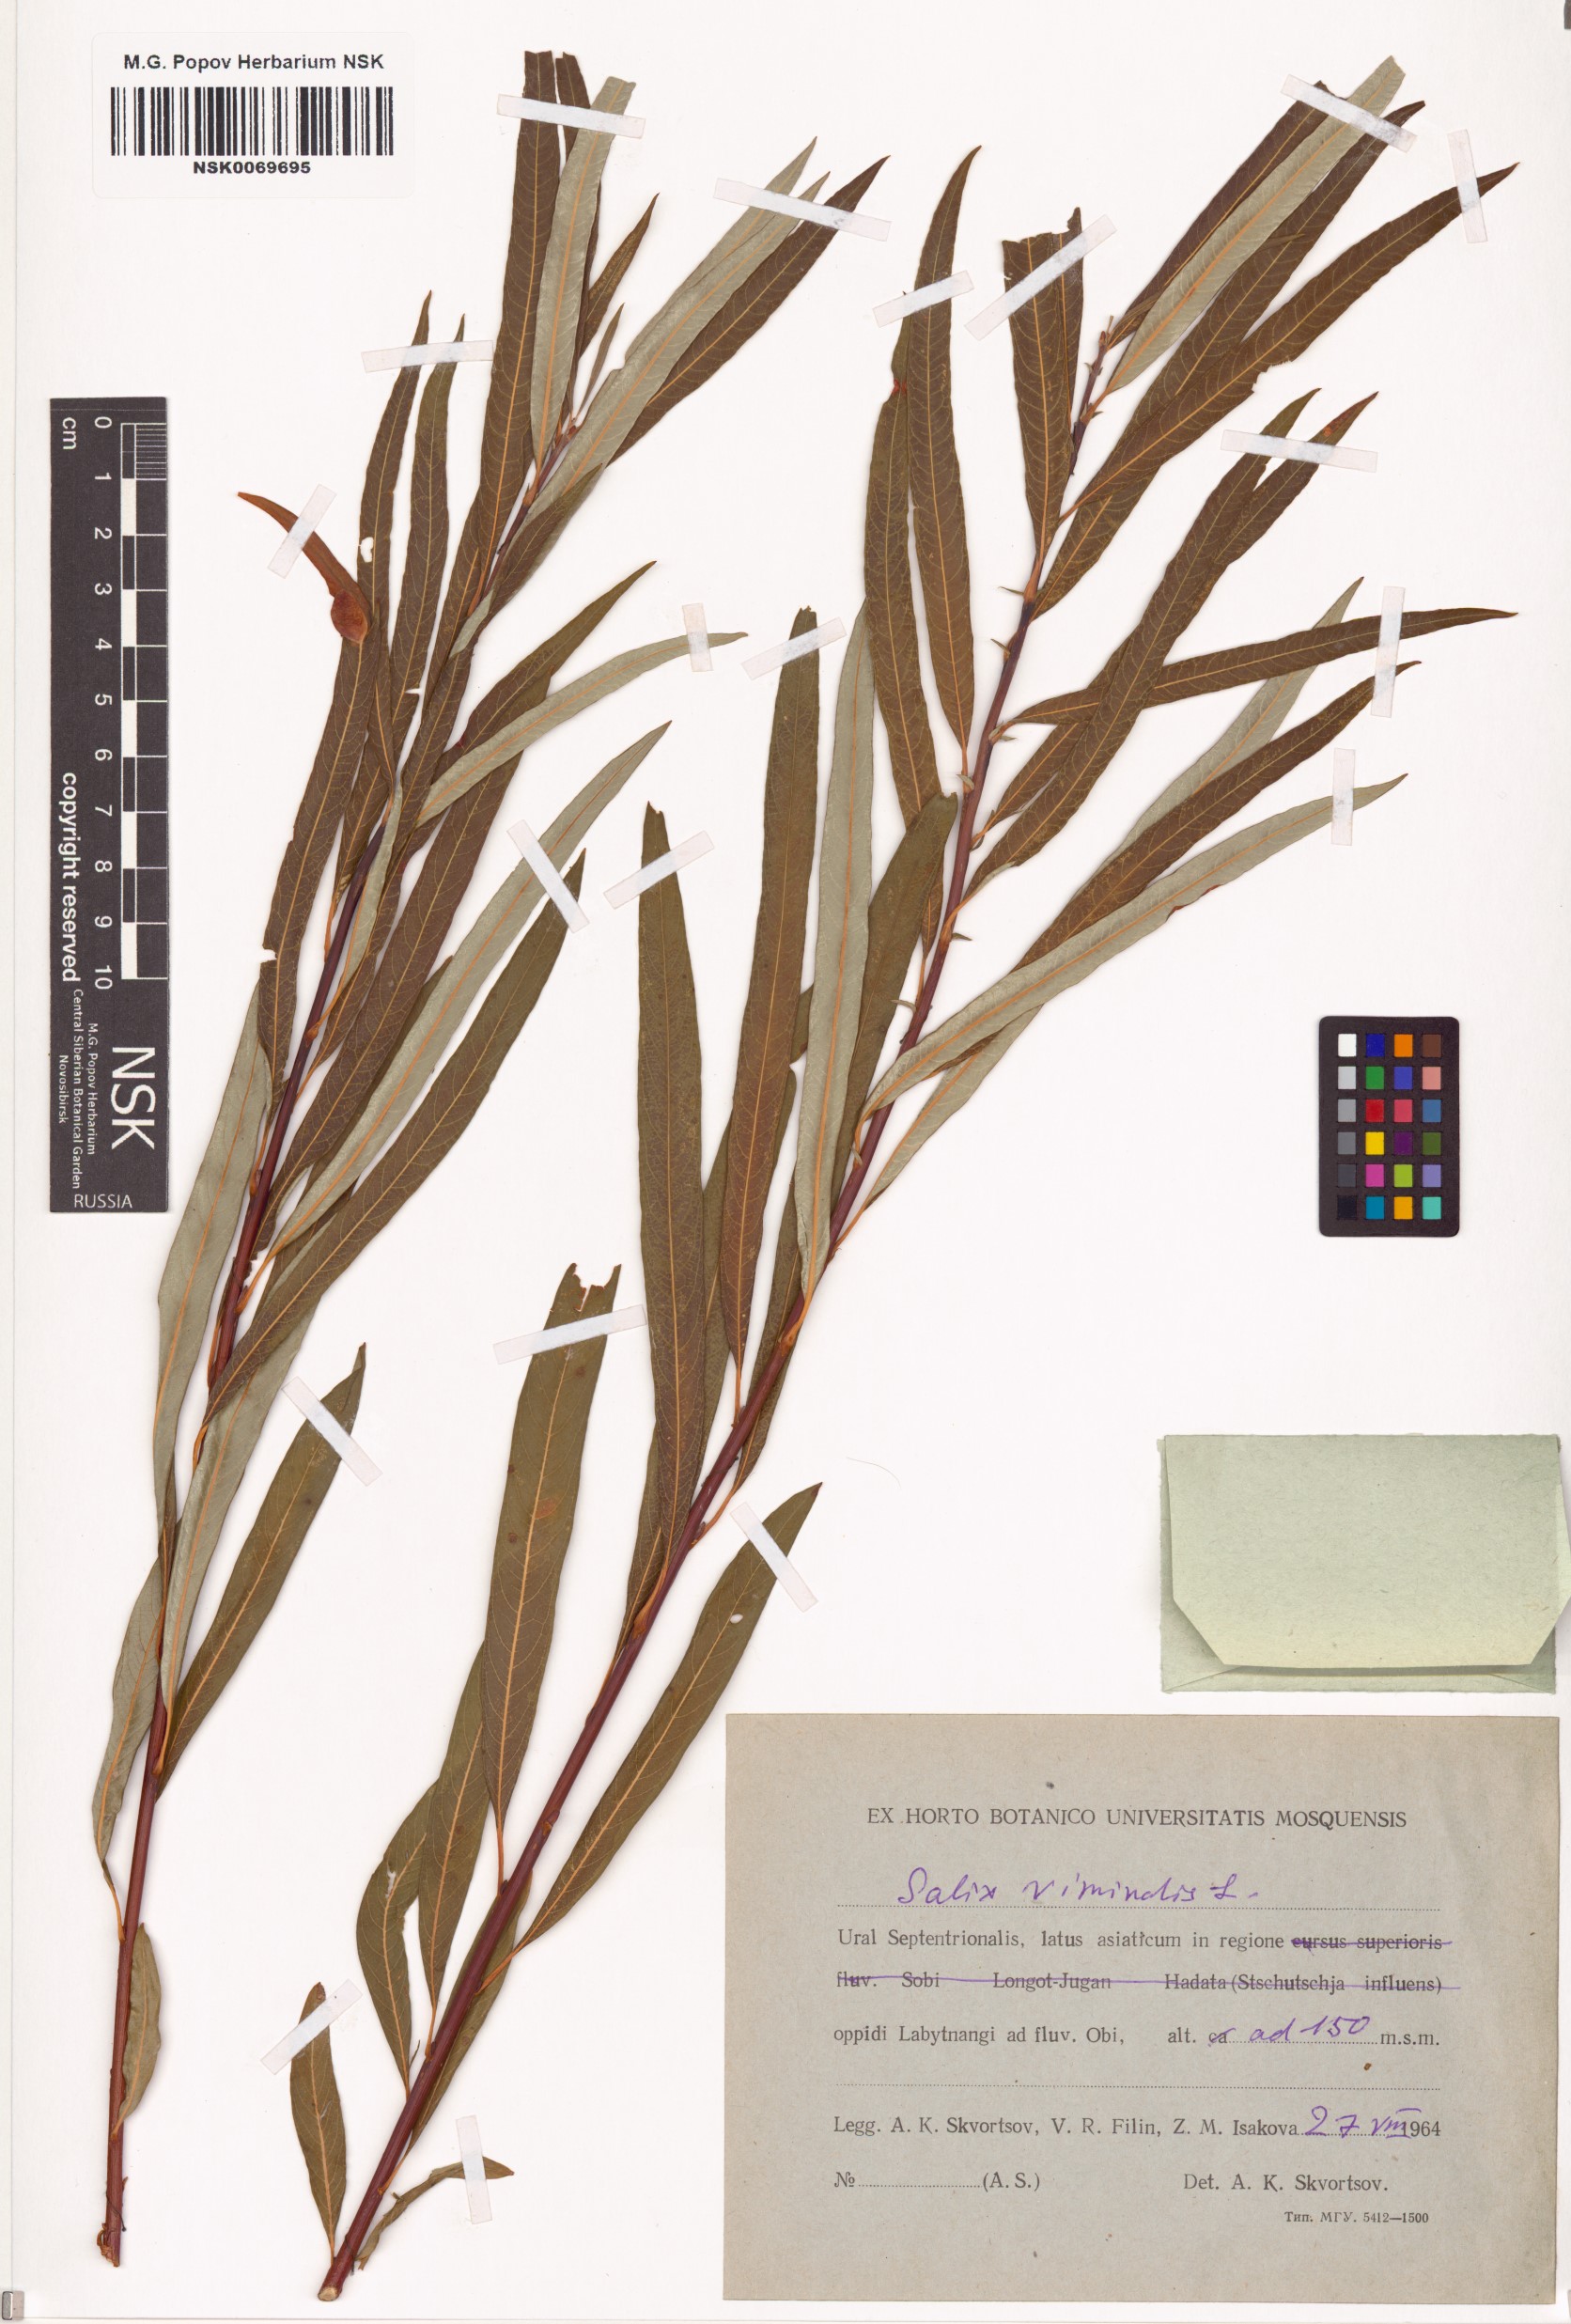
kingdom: Plantae
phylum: Tracheophyta
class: Magnoliopsida
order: Malpighiales
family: Salicaceae
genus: Salix
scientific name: Salix viminalis
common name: Osier
